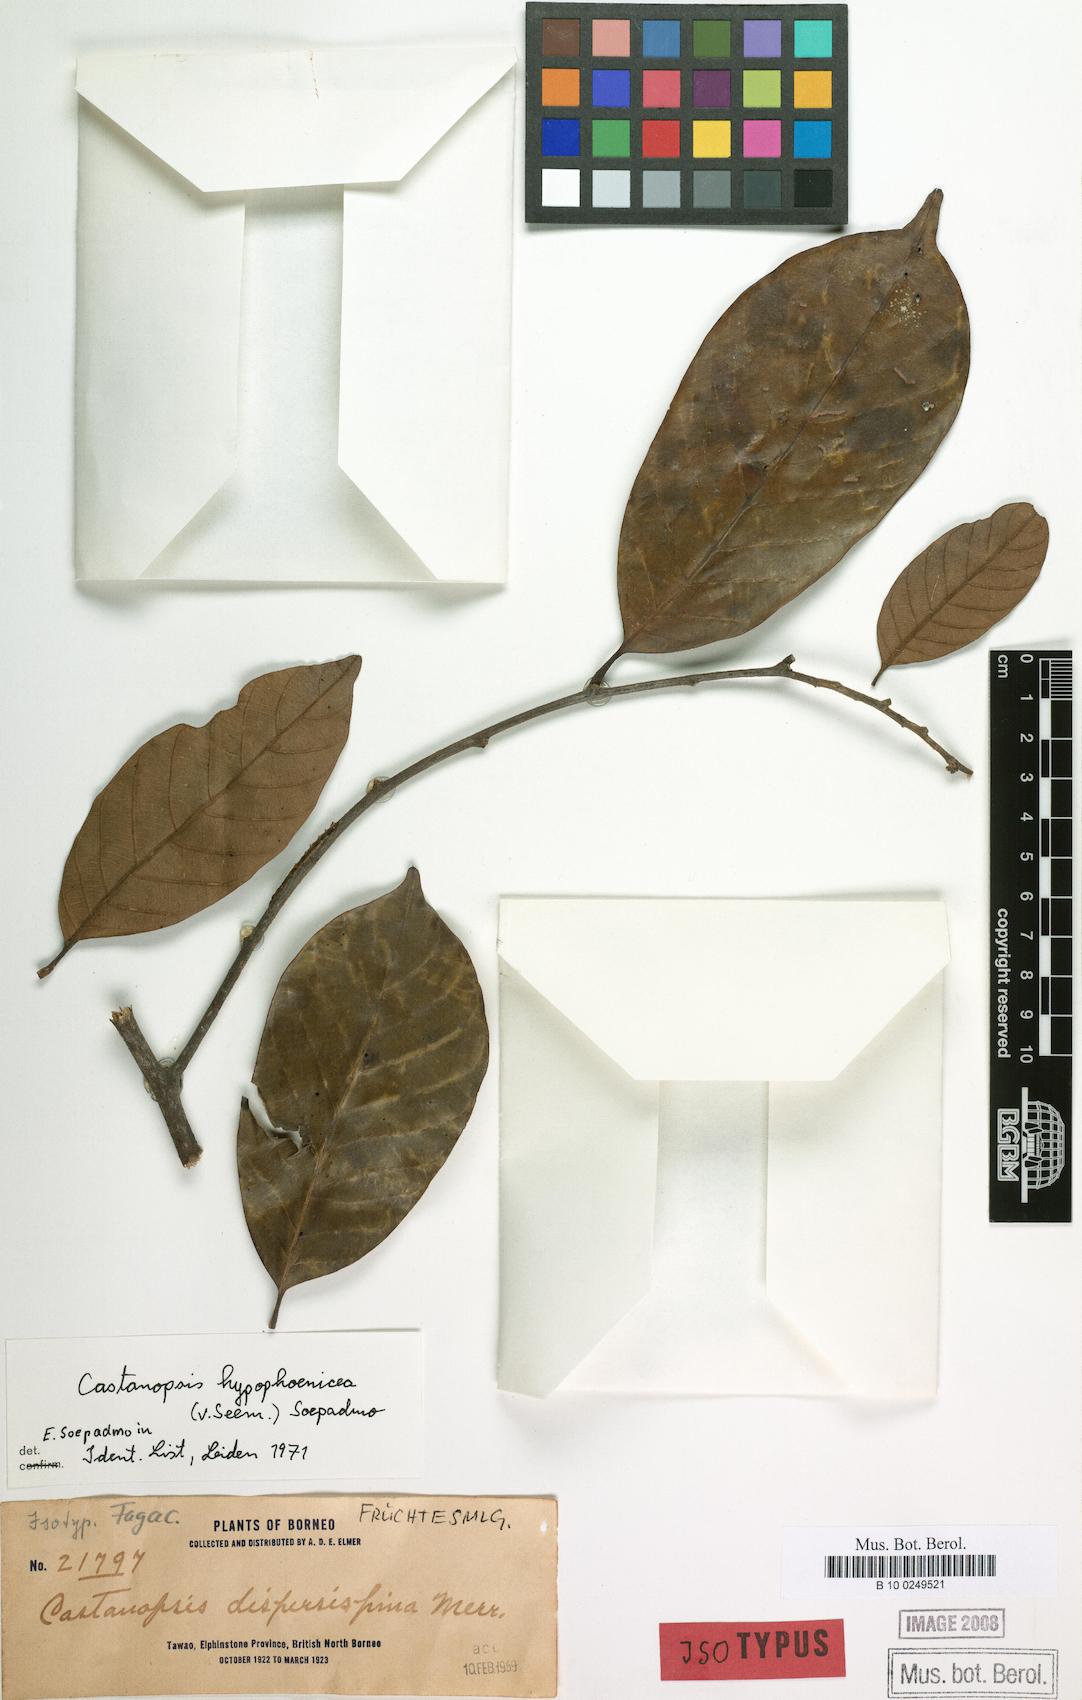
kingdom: Plantae
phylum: Tracheophyta
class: Magnoliopsida
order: Fagales
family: Fagaceae
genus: Castanopsis
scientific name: Castanopsis hypophoenicea
